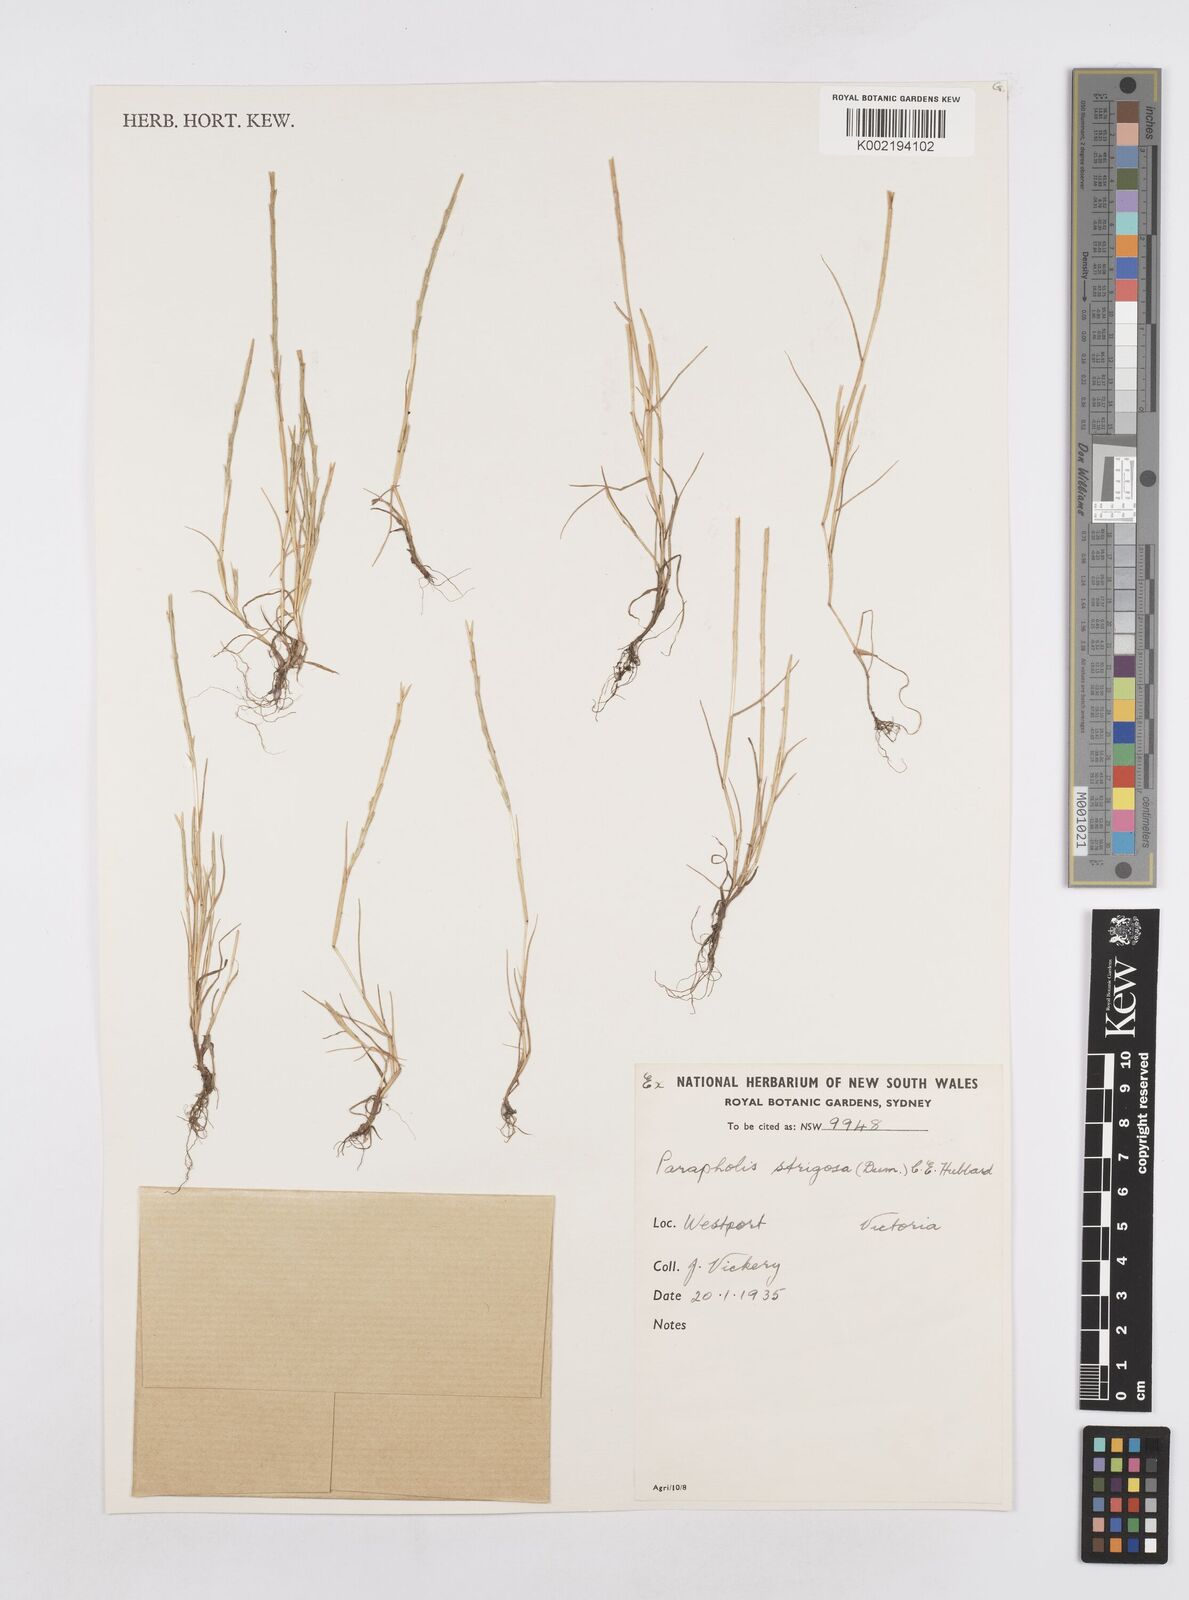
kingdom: Plantae
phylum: Tracheophyta
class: Liliopsida
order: Poales
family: Poaceae
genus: Parapholis
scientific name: Parapholis strigosa
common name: Hard-grass
